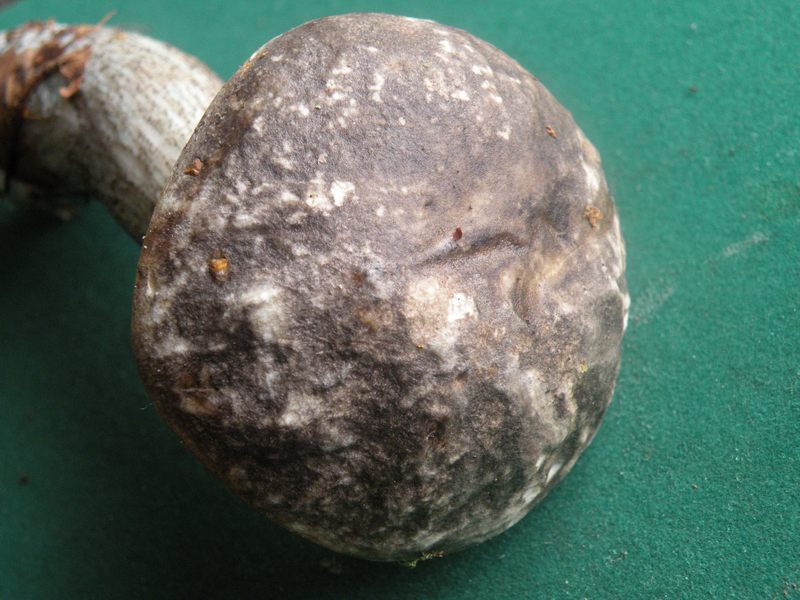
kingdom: Fungi
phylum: Basidiomycota
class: Agaricomycetes
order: Boletales
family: Boletaceae
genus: Leccinum
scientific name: Leccinum variicolor
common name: flammet skælrørhat
